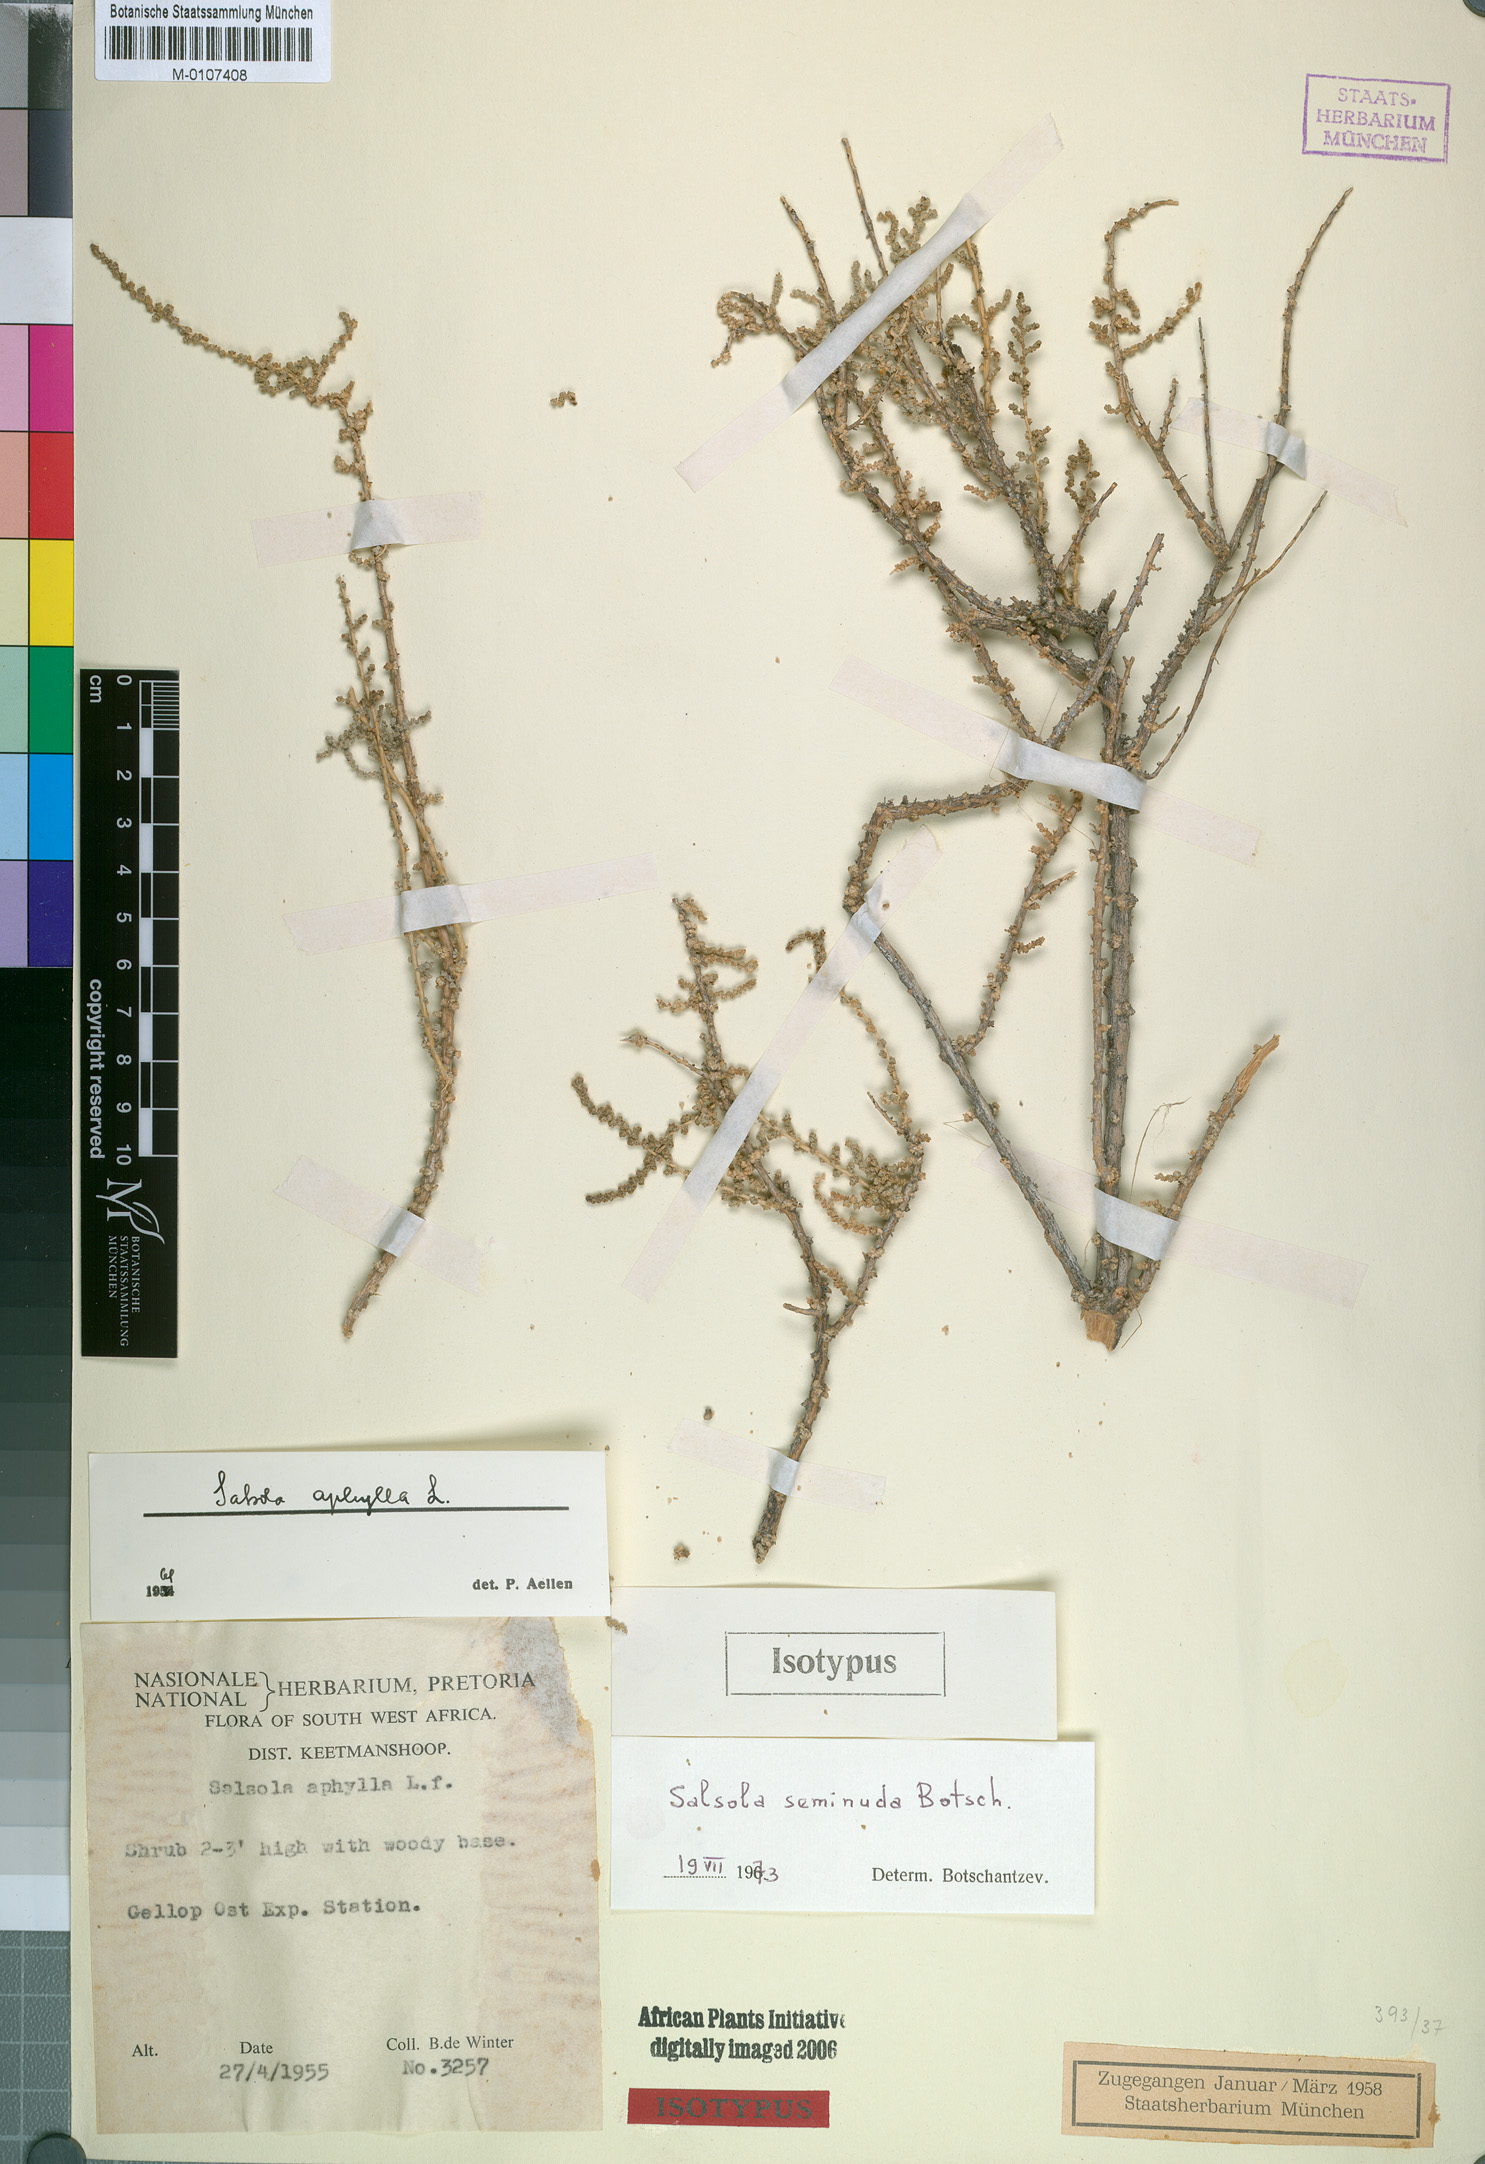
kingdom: Plantae
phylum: Tracheophyta
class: Magnoliopsida
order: Caryophyllales
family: Amaranthaceae
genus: Caroxylon
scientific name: Caroxylon seminudum
